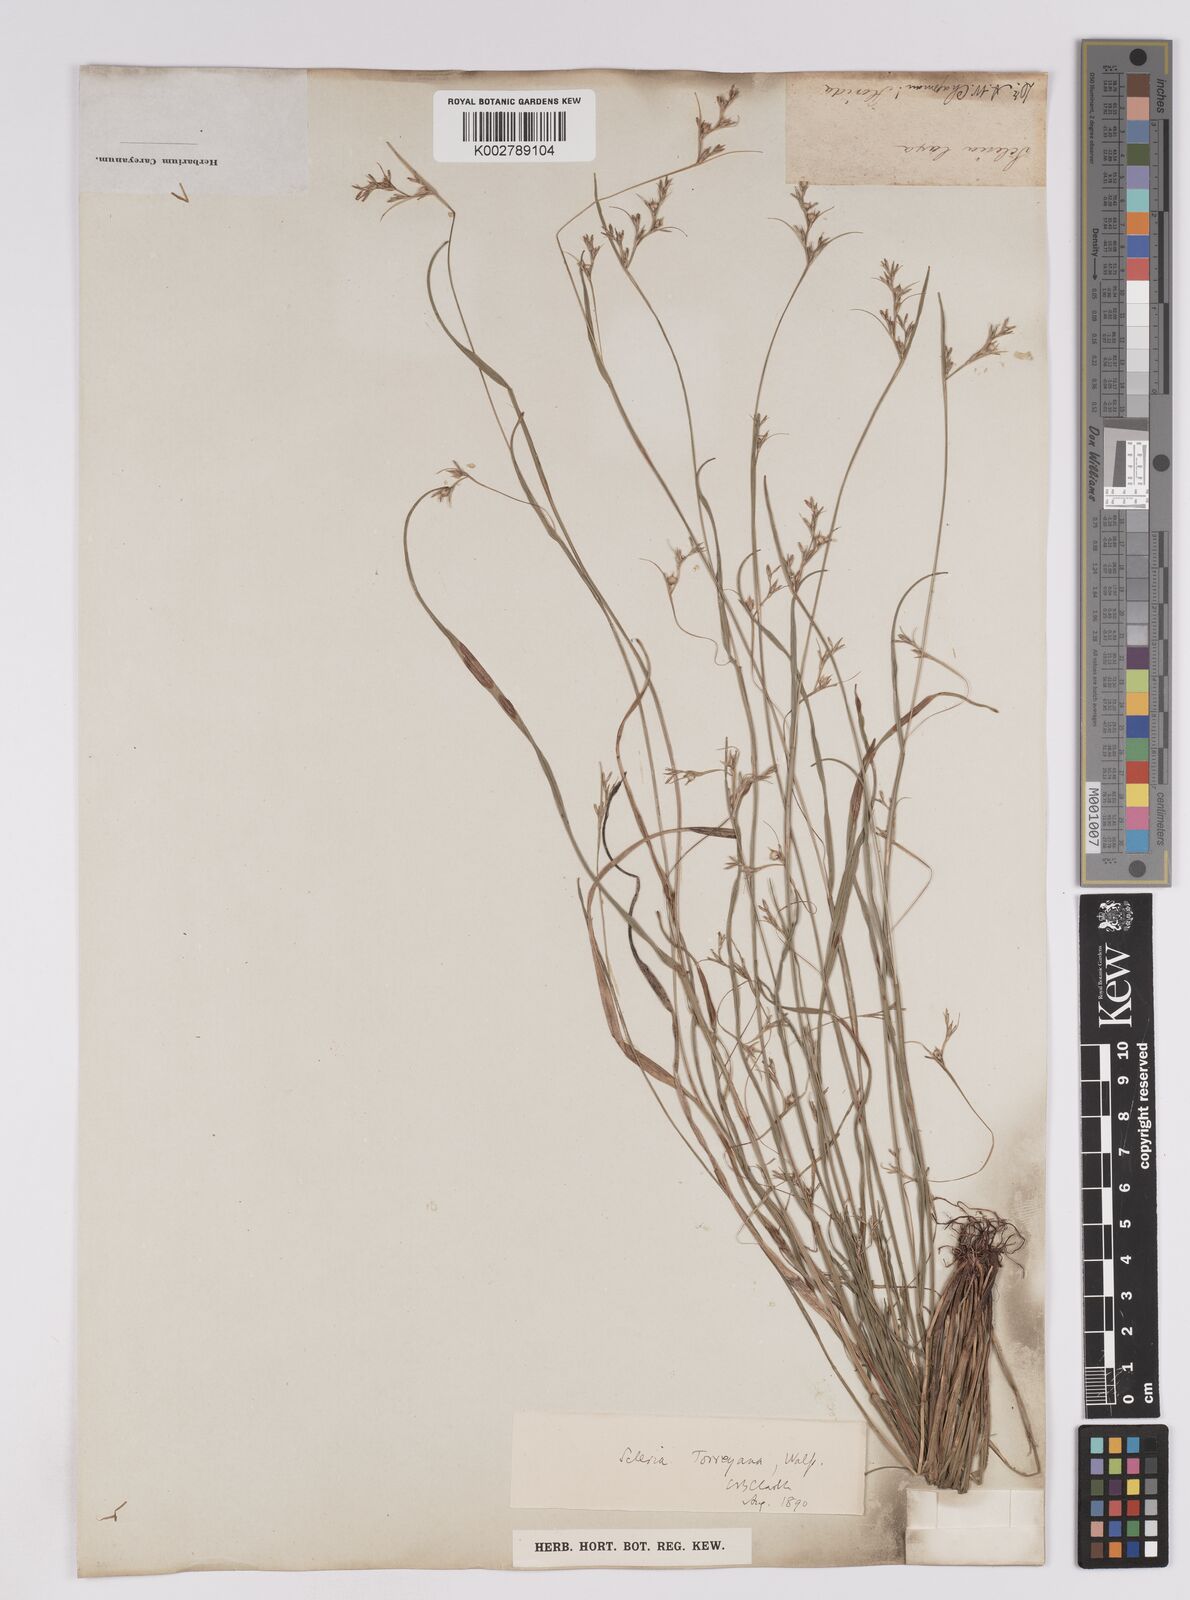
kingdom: Plantae
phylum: Tracheophyta
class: Liliopsida
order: Poales
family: Cyperaceae
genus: Scleria
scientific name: Scleria muehlenbergii
